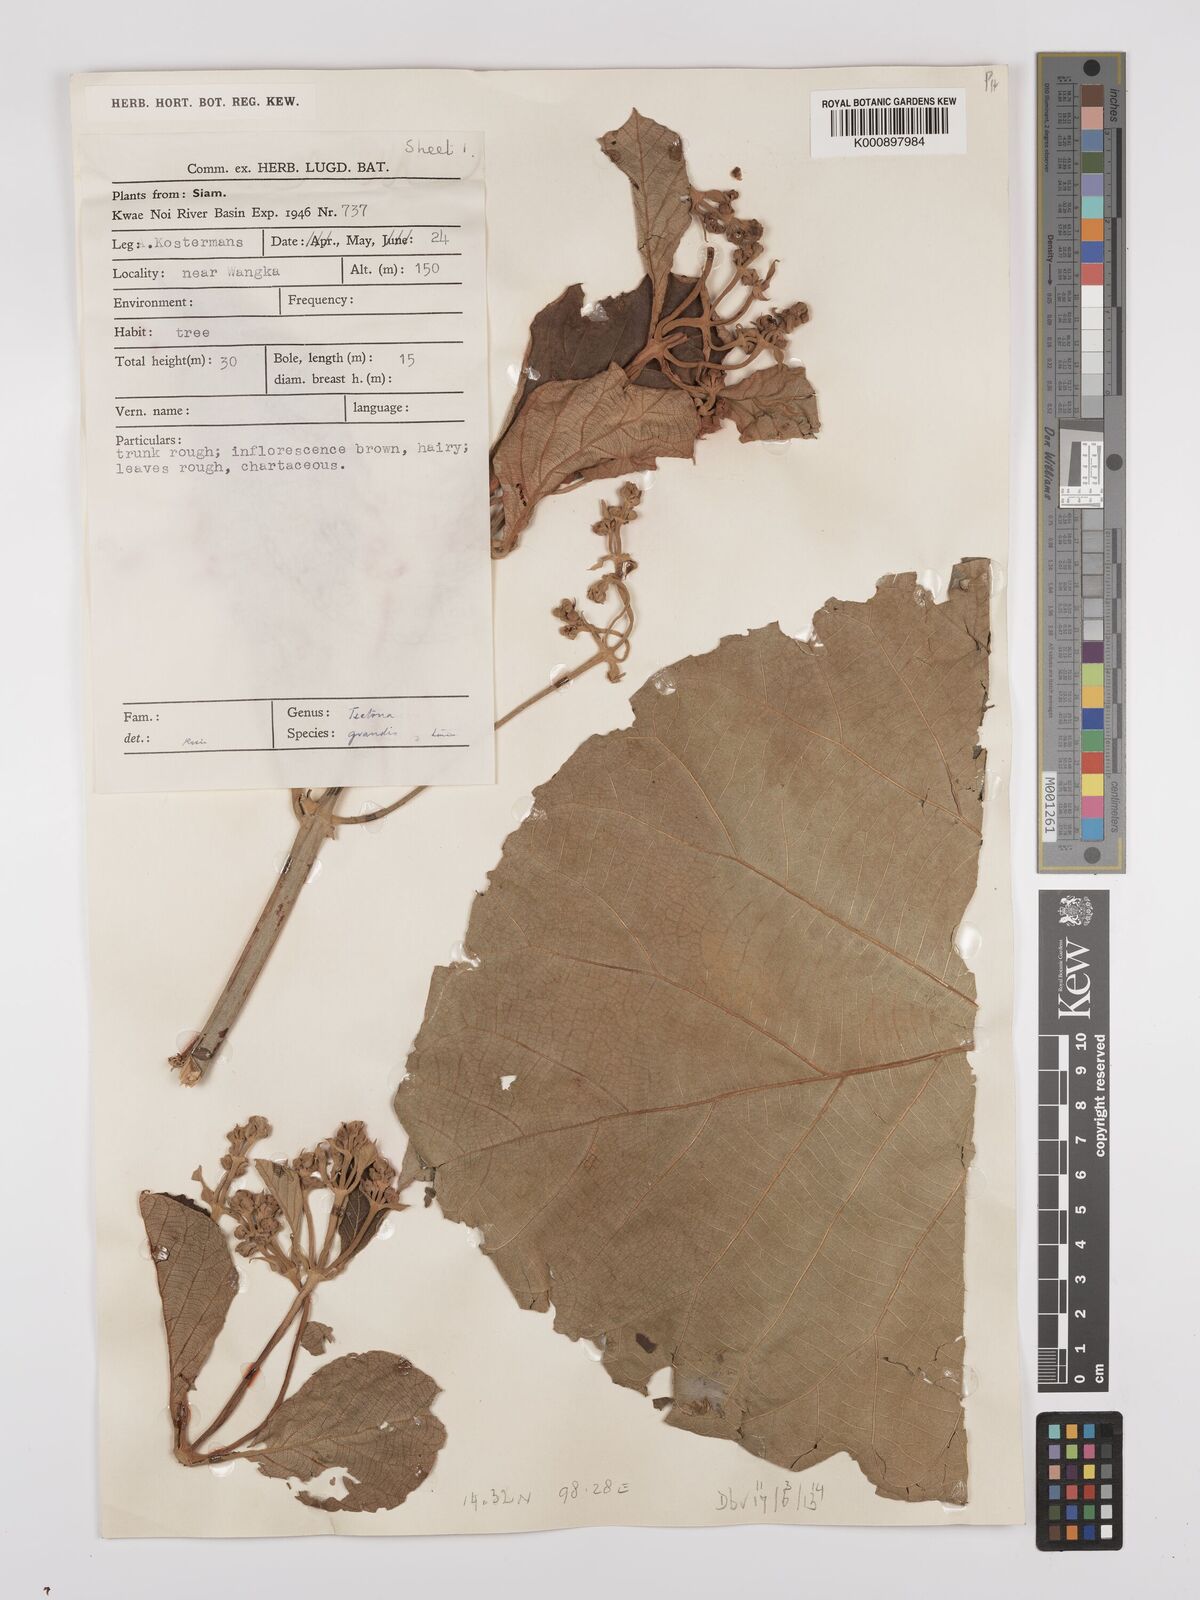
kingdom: Plantae
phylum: Tracheophyta
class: Magnoliopsida
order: Lamiales
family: Lamiaceae
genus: Tectona
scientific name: Tectona grandis
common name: Teak
